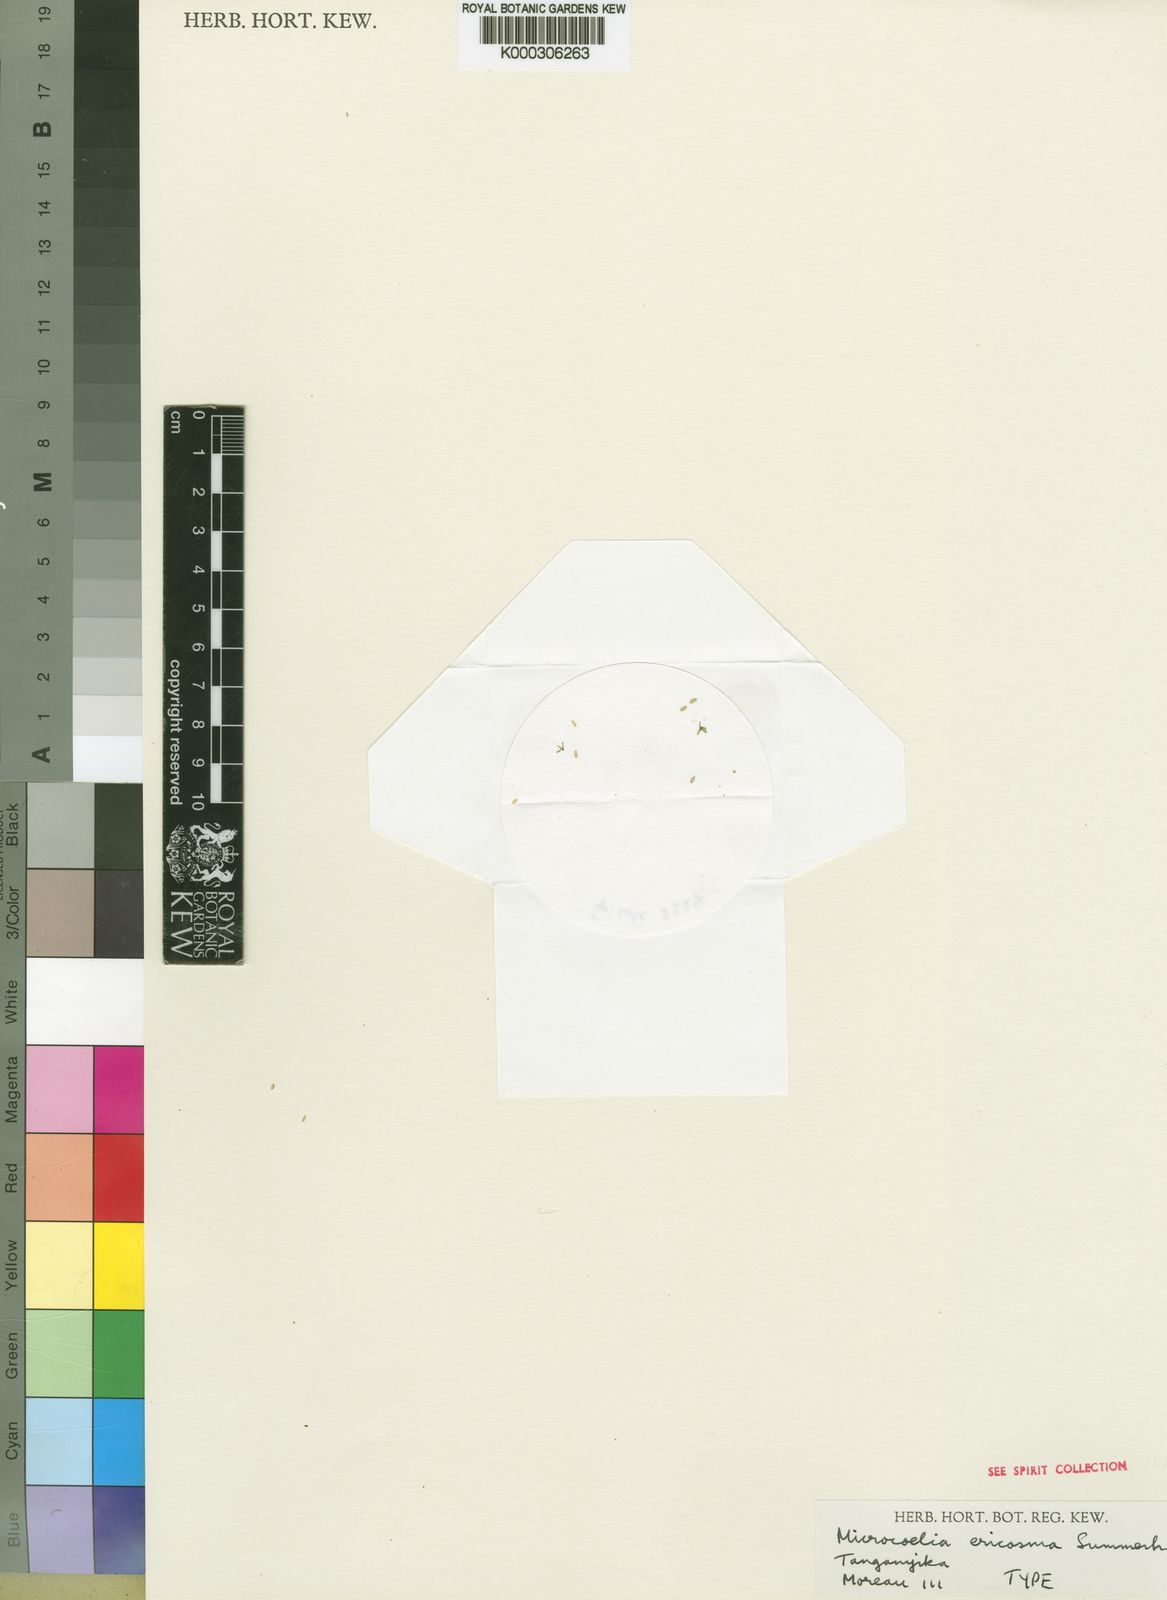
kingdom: Plantae
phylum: Tracheophyta
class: Liliopsida
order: Asparagales
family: Orchidaceae
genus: Microcoelia
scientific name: Microcoelia stolzii
